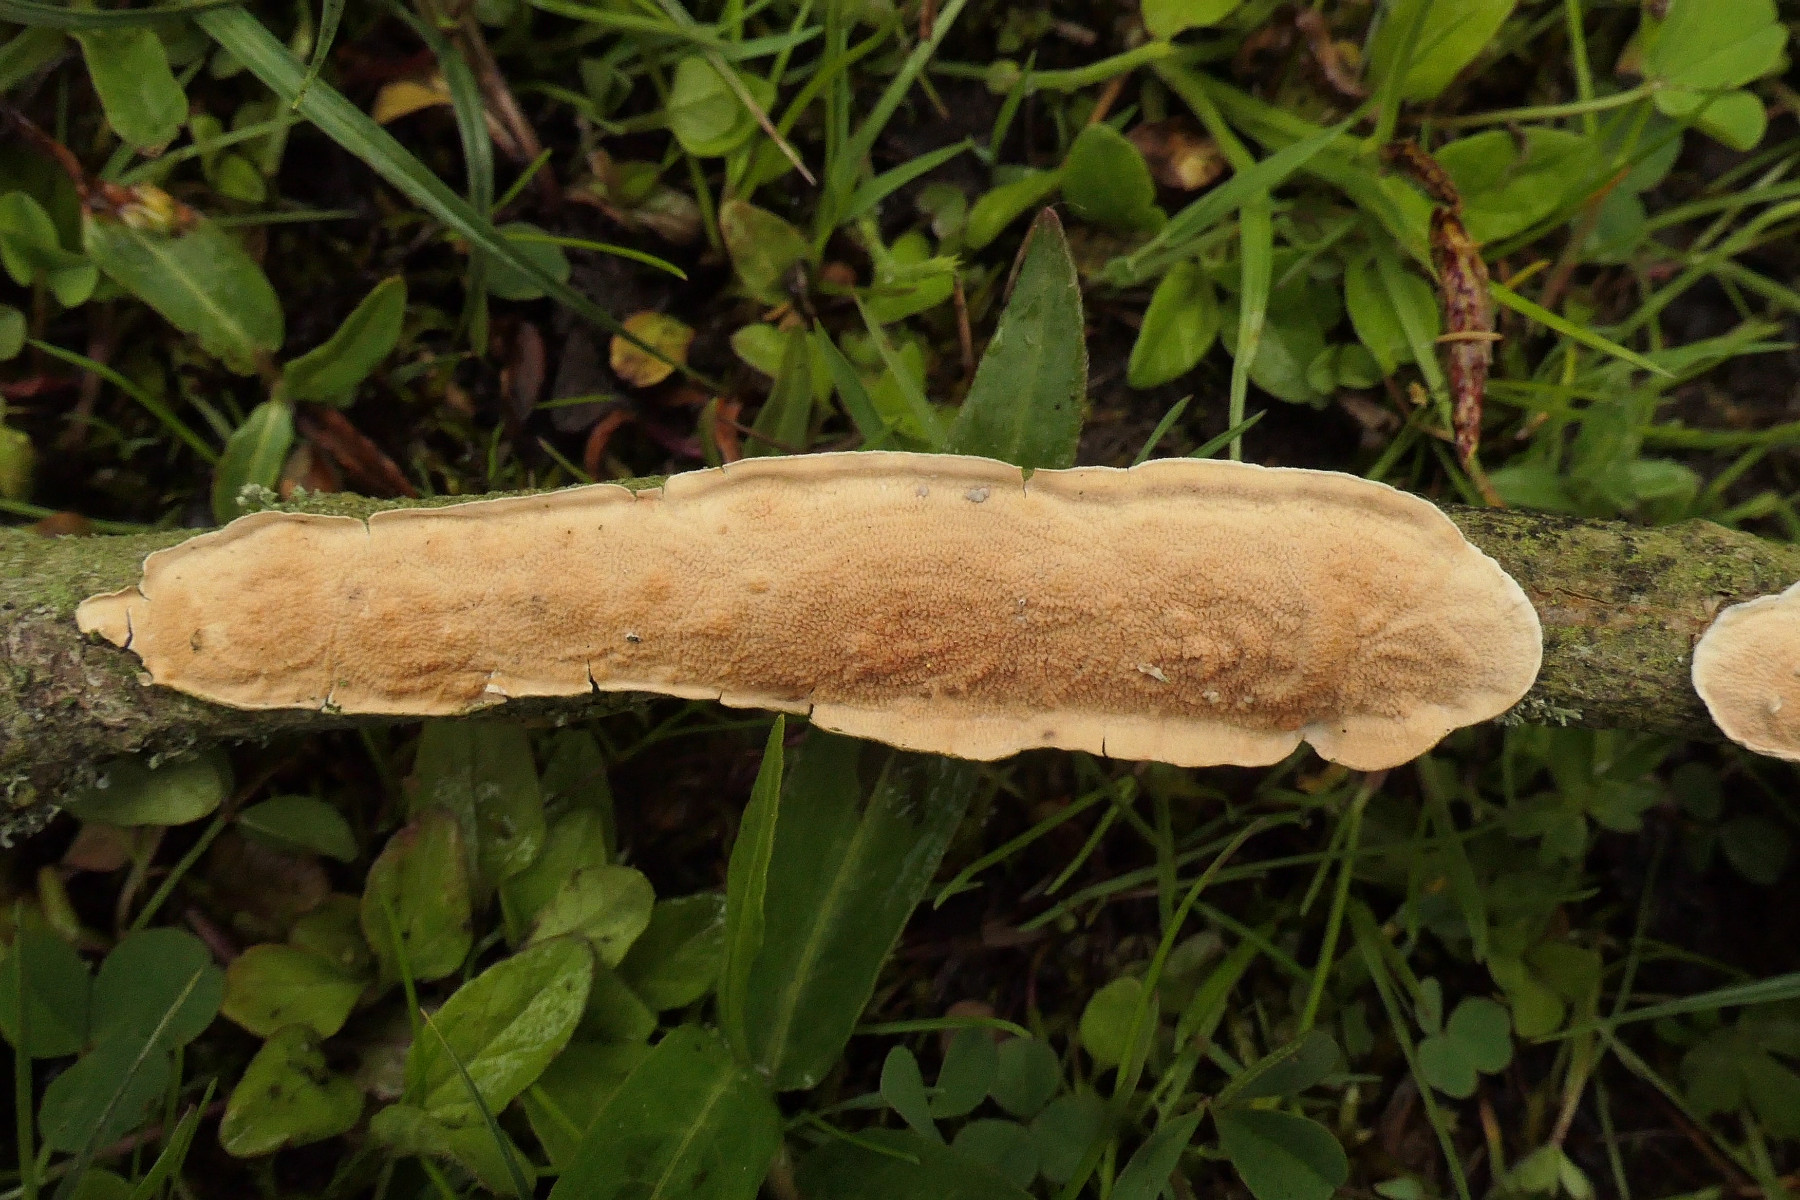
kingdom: Fungi
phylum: Basidiomycota
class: Agaricomycetes
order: Polyporales
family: Irpicaceae
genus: Byssomerulius
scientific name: Byssomerulius corium
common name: læder-åresvamp
